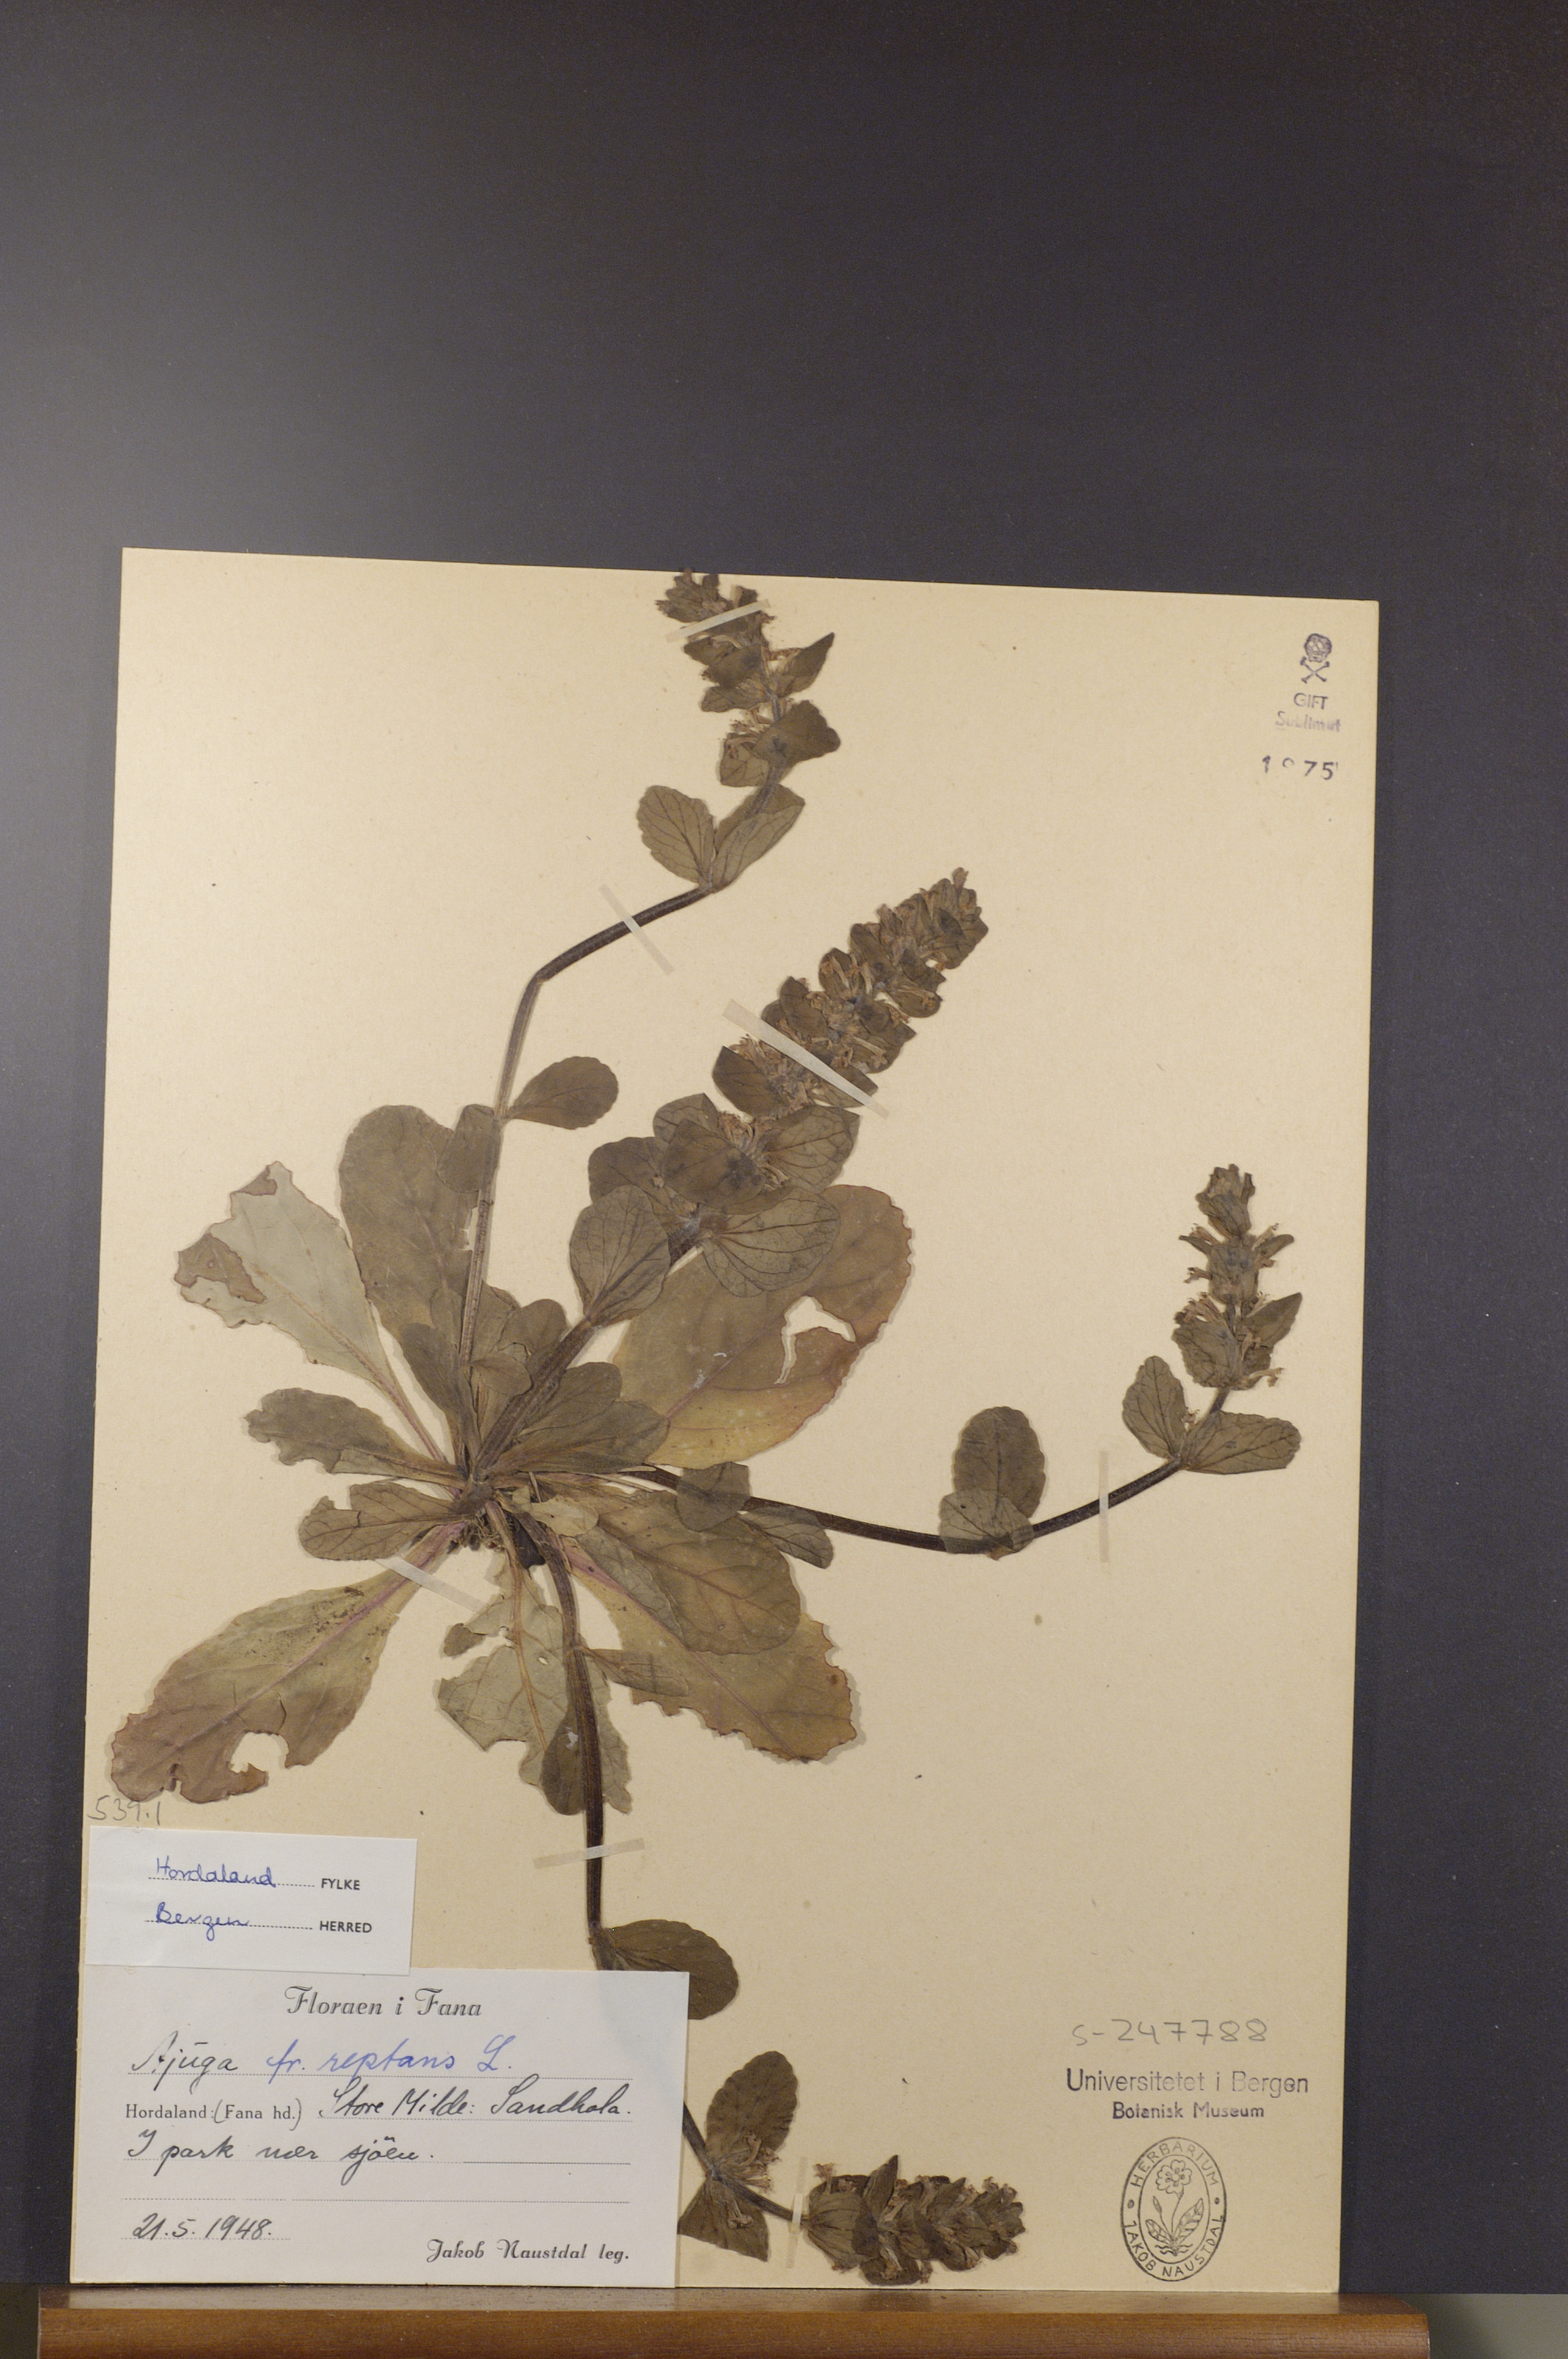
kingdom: Plantae
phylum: Tracheophyta
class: Magnoliopsida
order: Lamiales
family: Lamiaceae
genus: Ajuga
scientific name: Ajuga reptans
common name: Bugle
